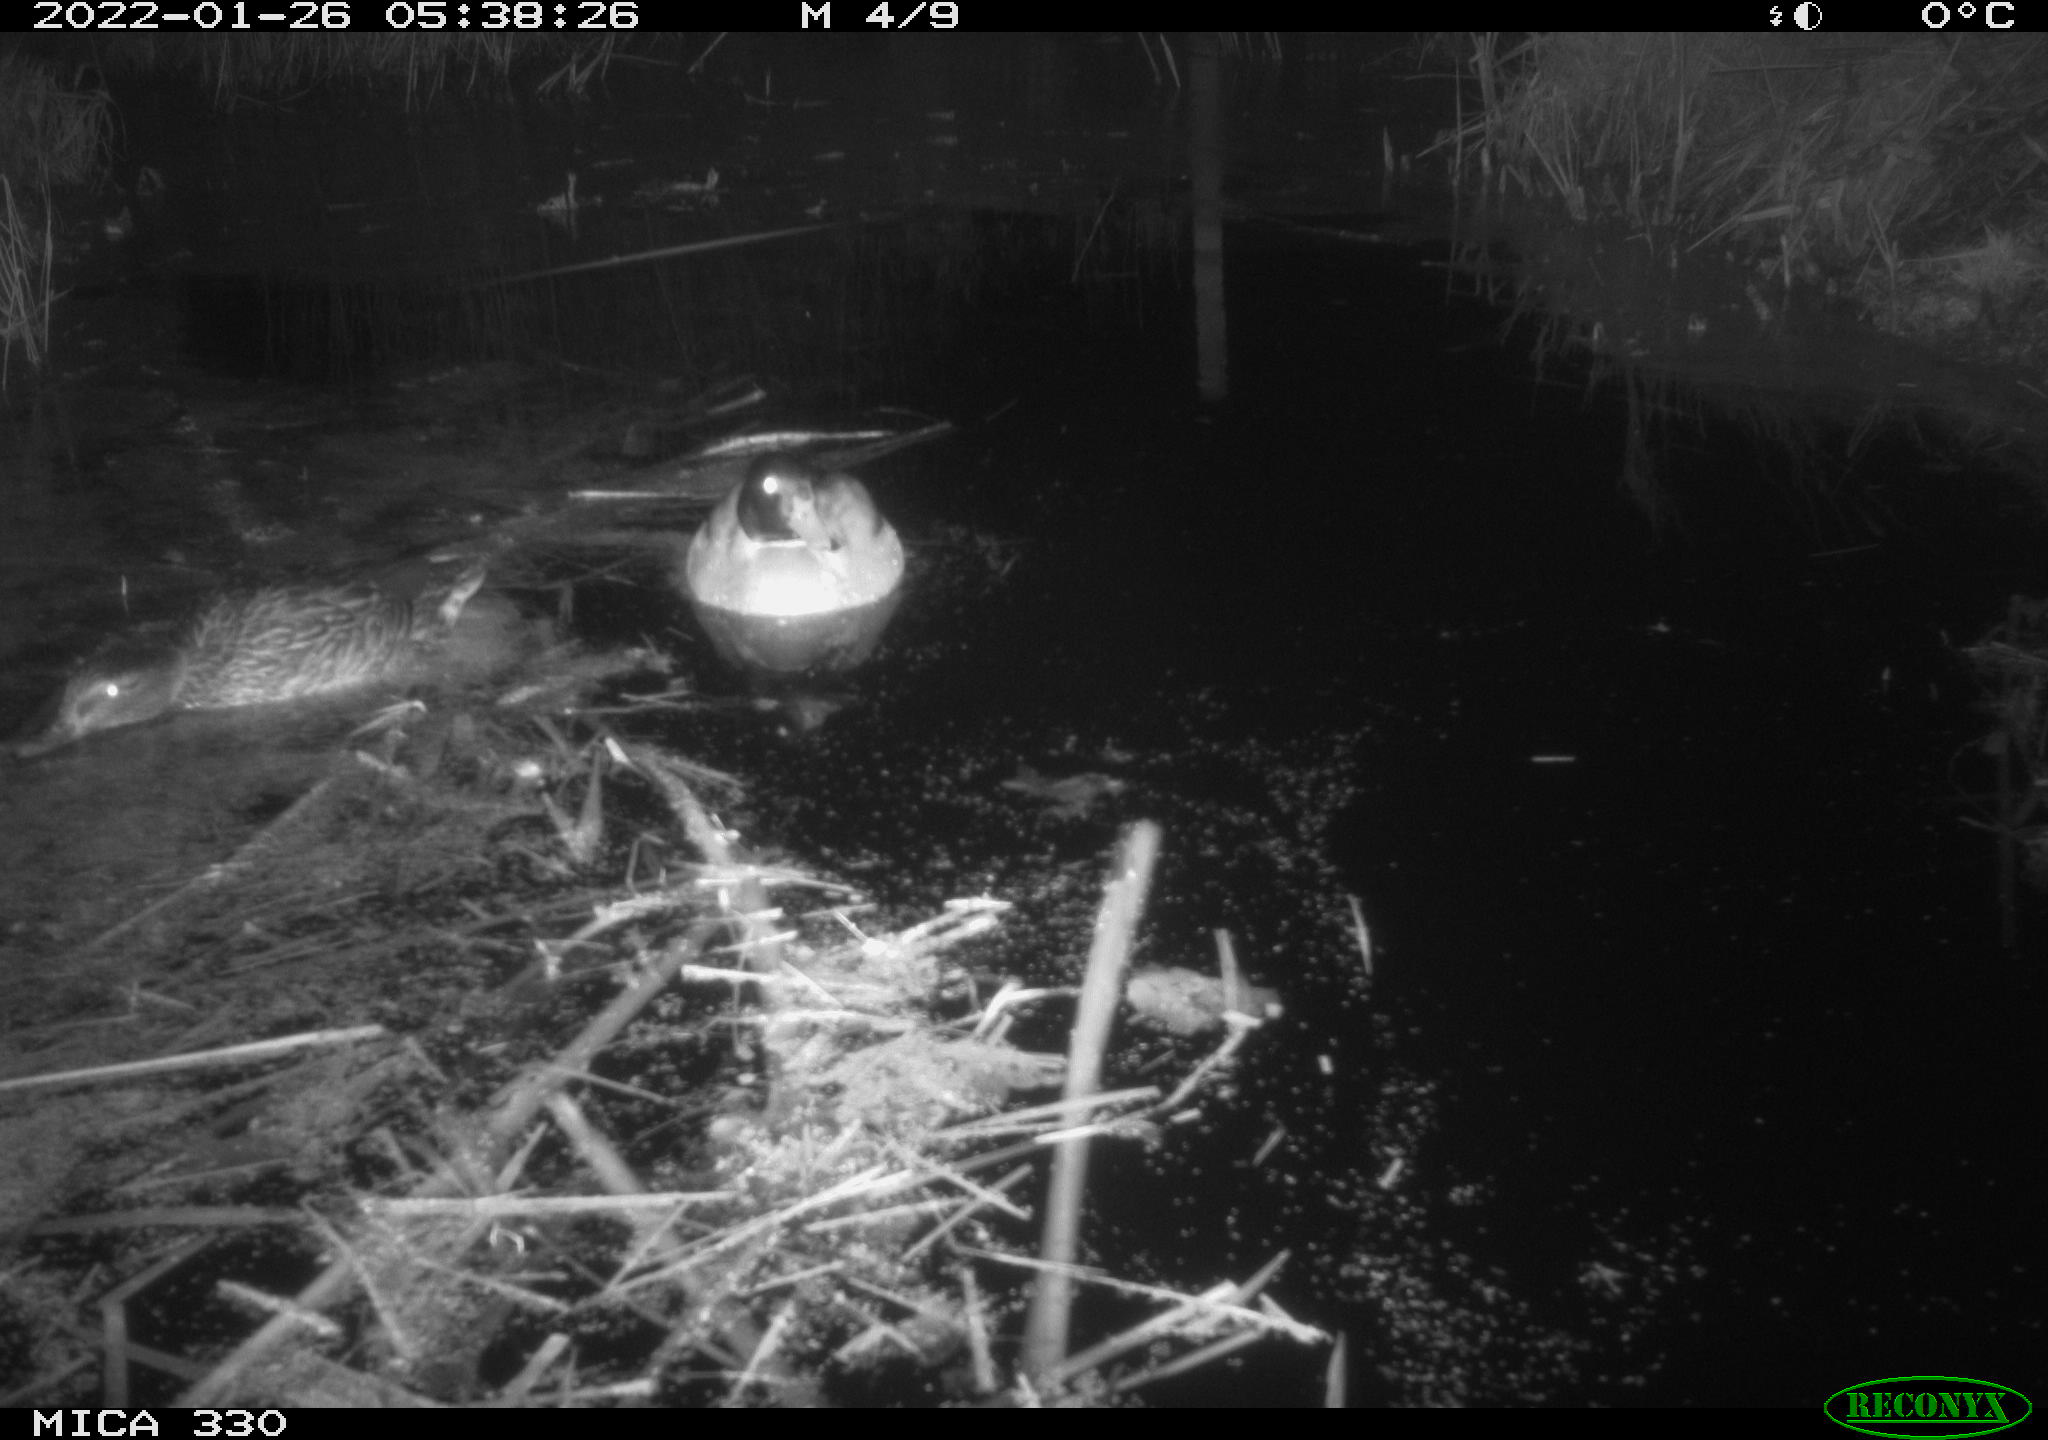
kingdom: Animalia
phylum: Chordata
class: Aves
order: Anseriformes
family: Anatidae
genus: Anas
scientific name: Anas platyrhynchos
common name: Mallard
